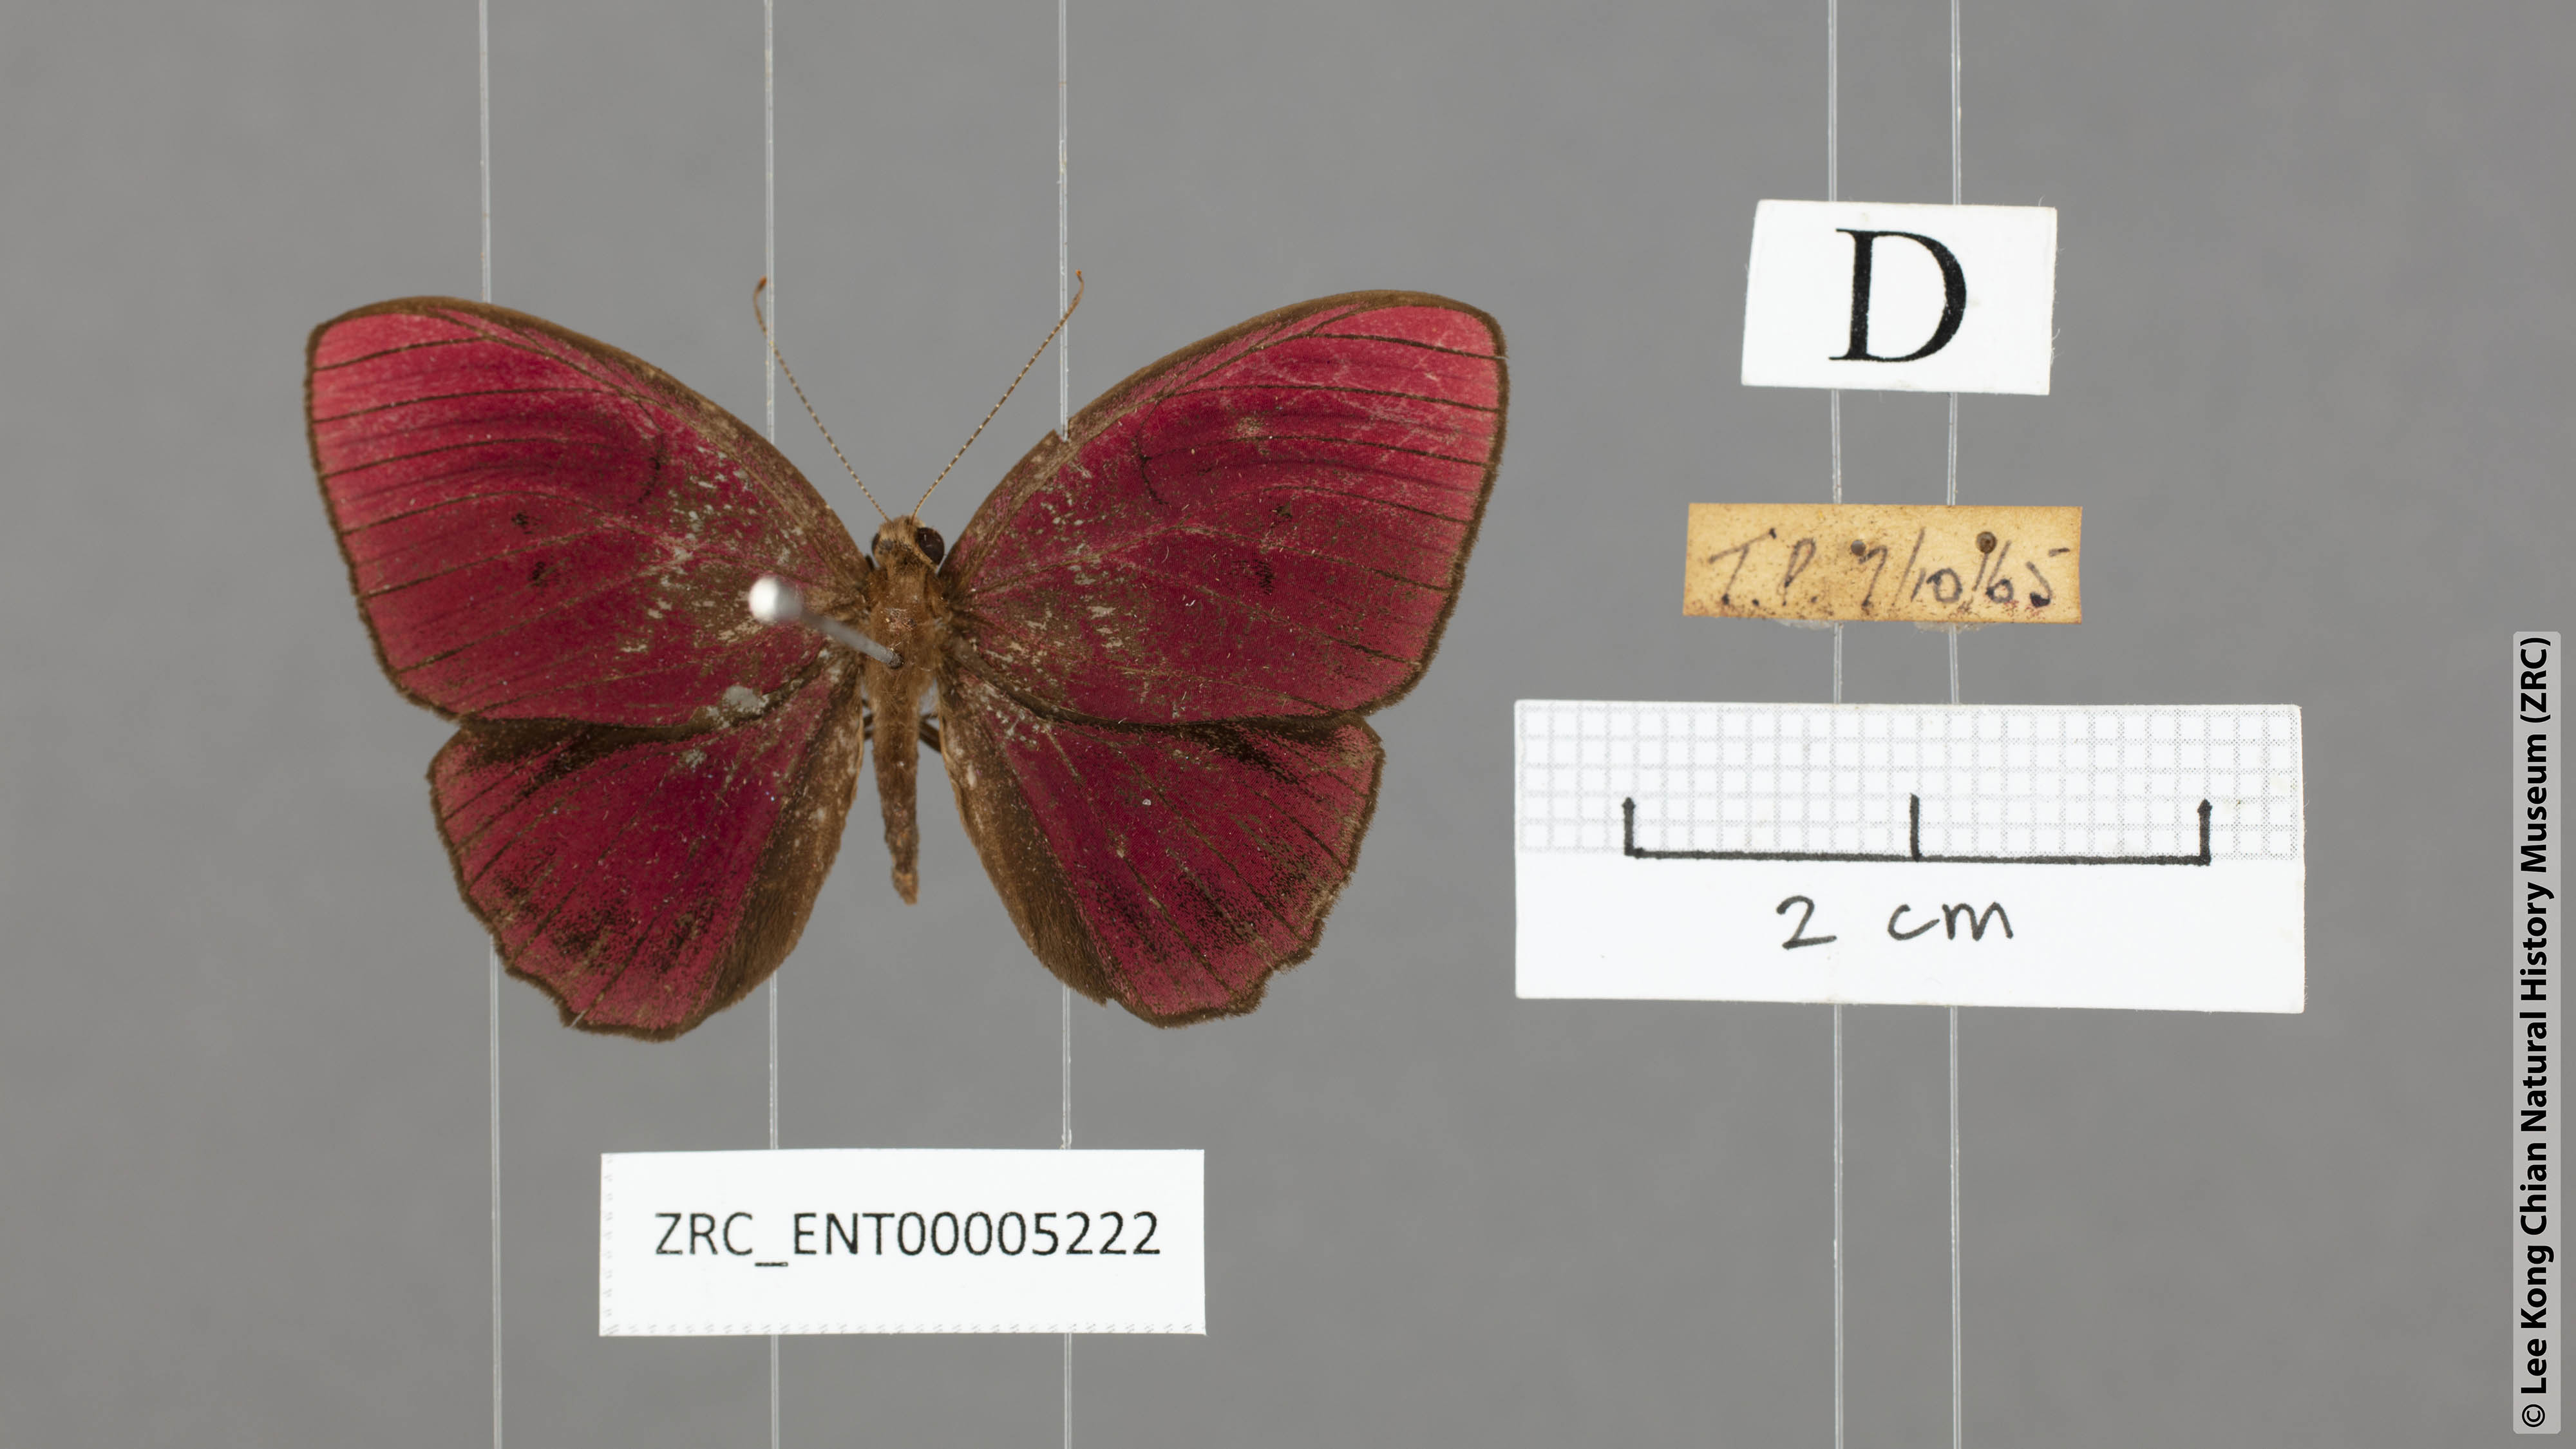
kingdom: Animalia
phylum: Arthropoda
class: Insecta
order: Lepidoptera
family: Riodinidae
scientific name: Riodinidae
